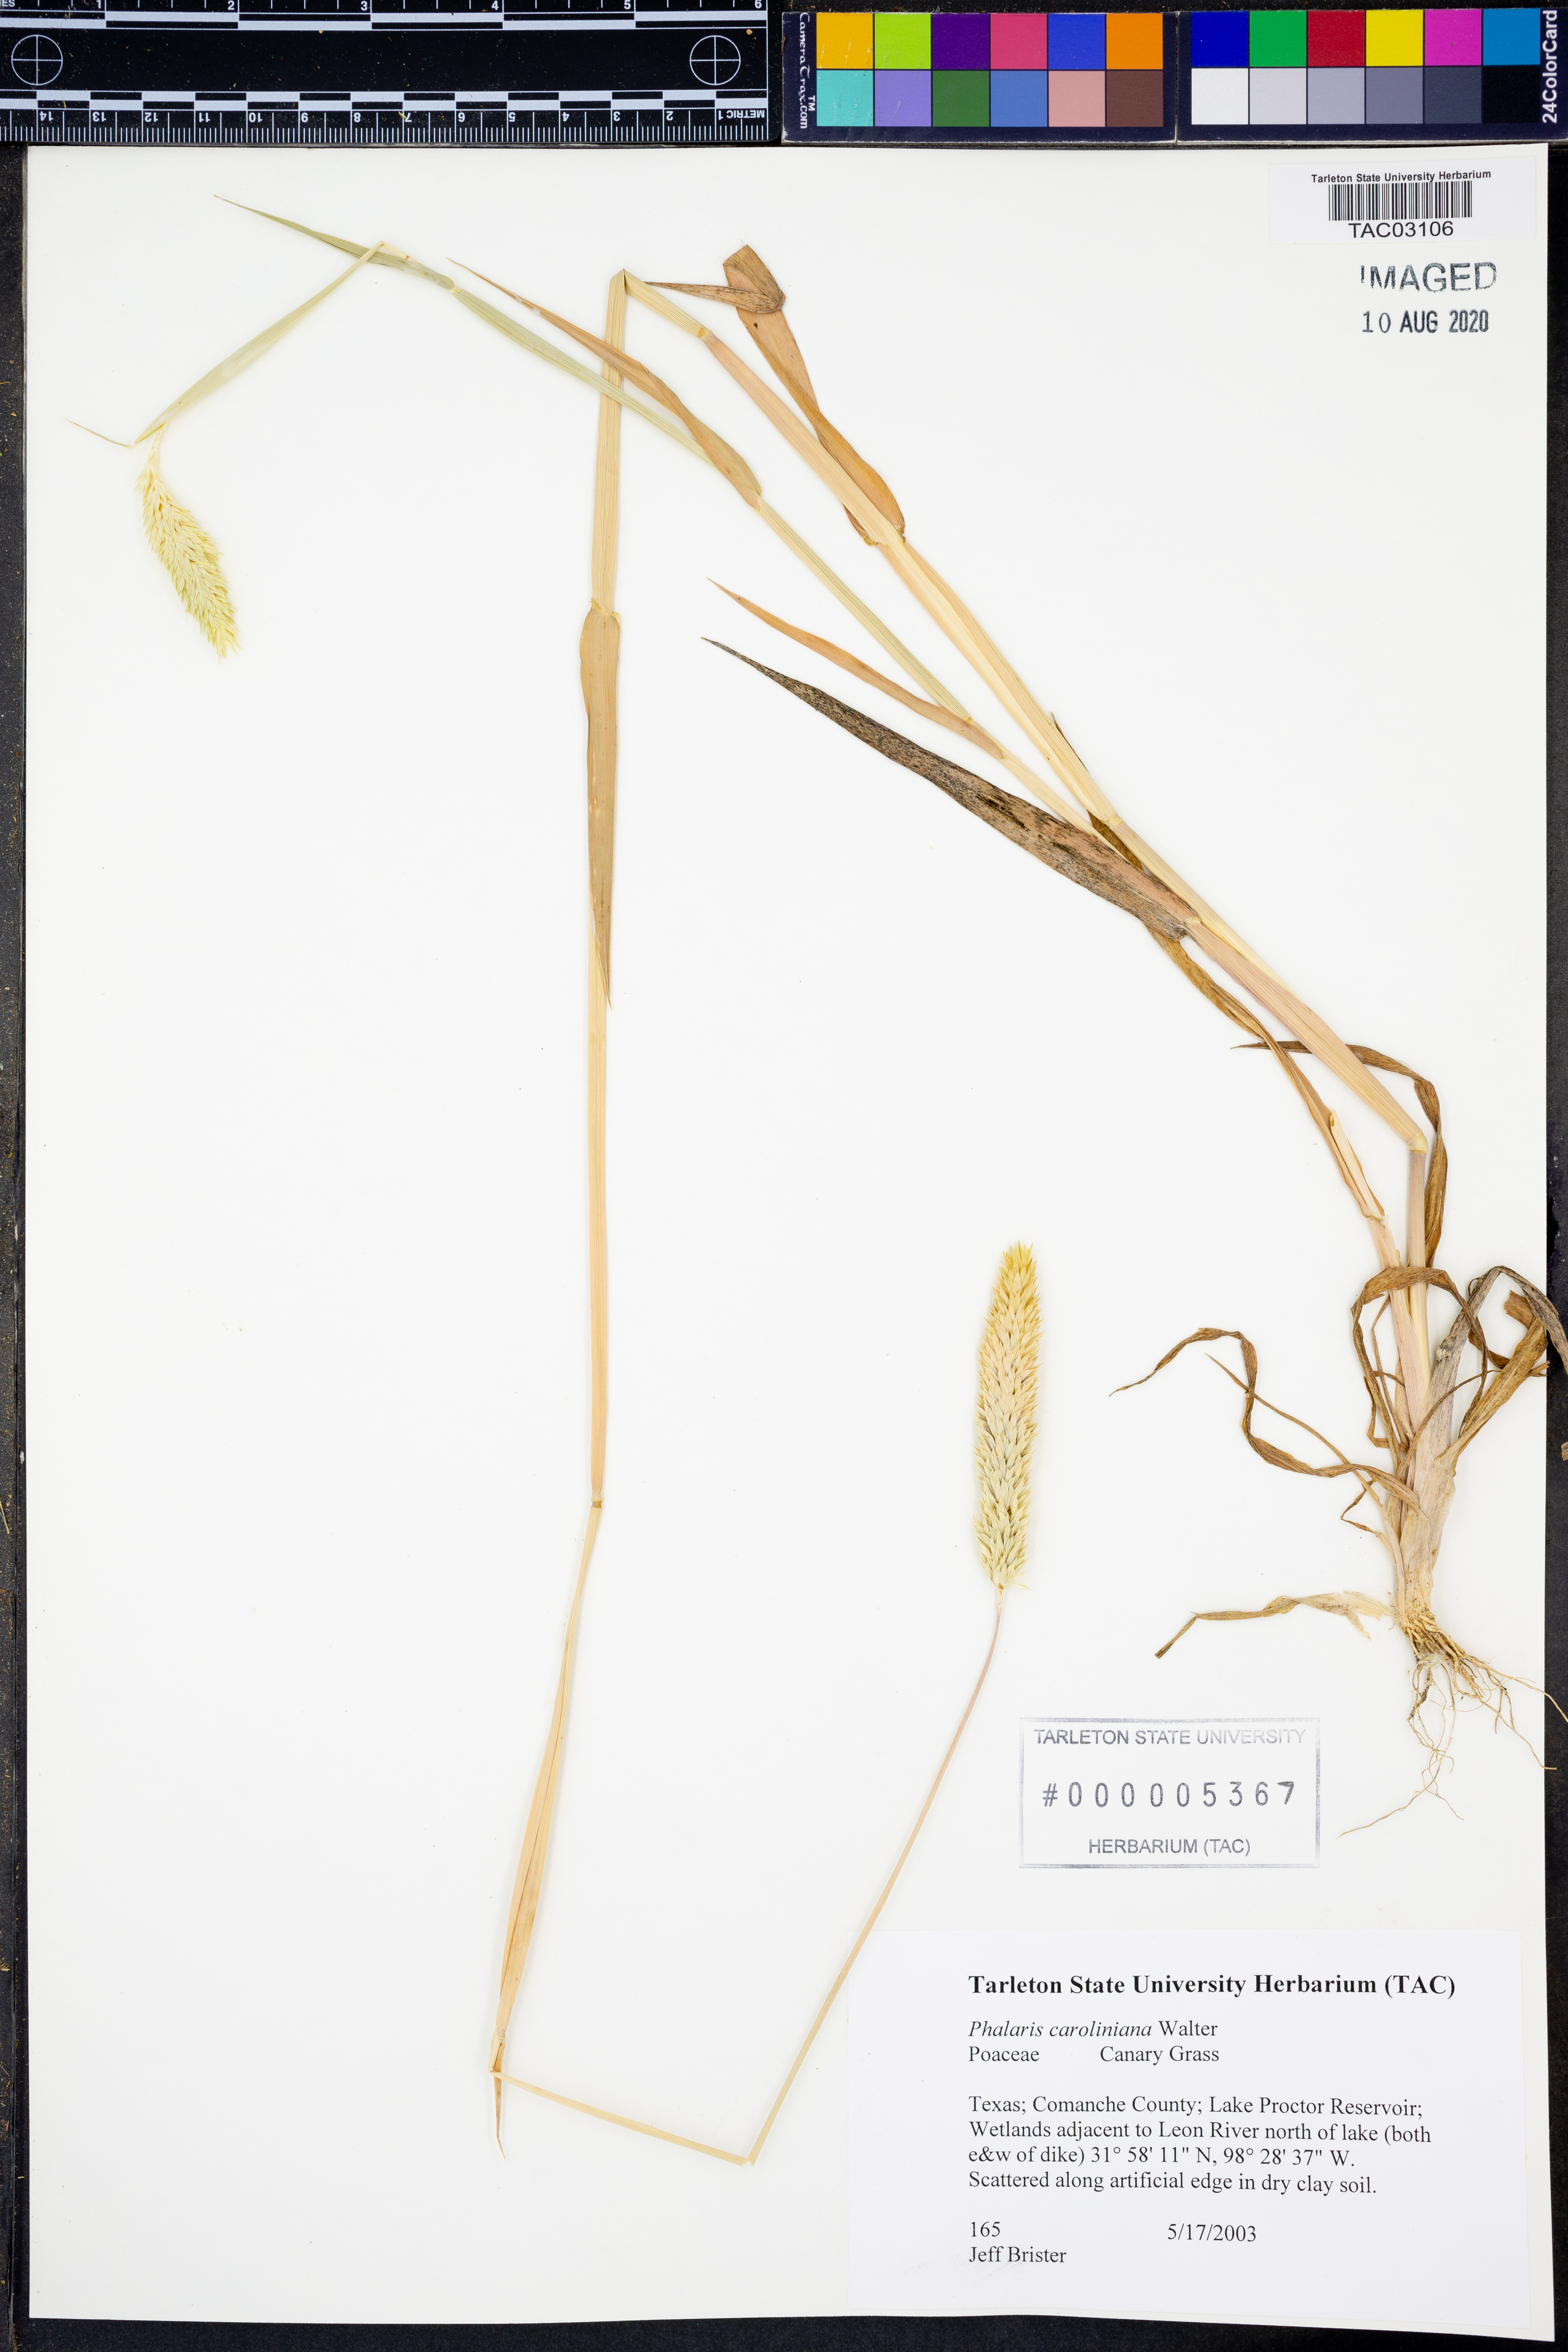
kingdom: Plantae
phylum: Tracheophyta
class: Liliopsida
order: Poales
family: Poaceae
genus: Phalaris
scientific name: Phalaris caroliniana
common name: May grass
